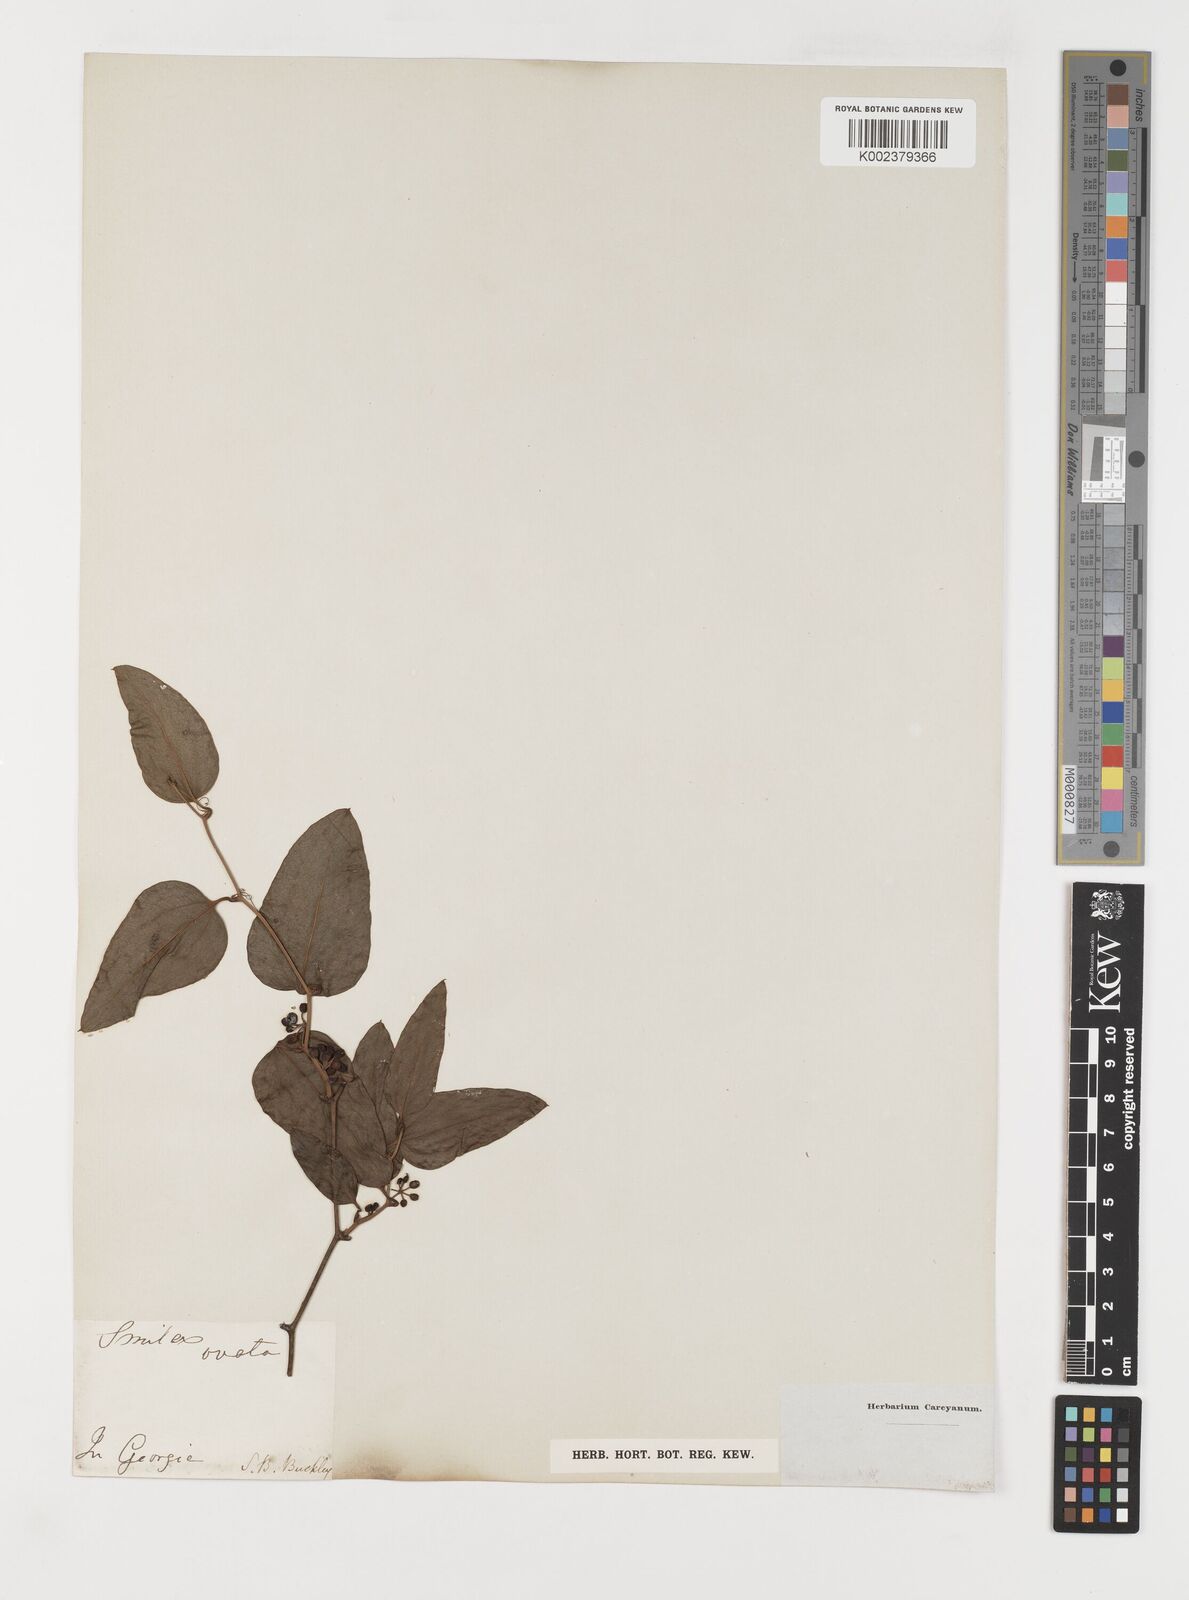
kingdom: Plantae
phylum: Tracheophyta
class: Liliopsida
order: Liliales
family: Smilacaceae
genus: Smilax
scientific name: Smilax maritima
